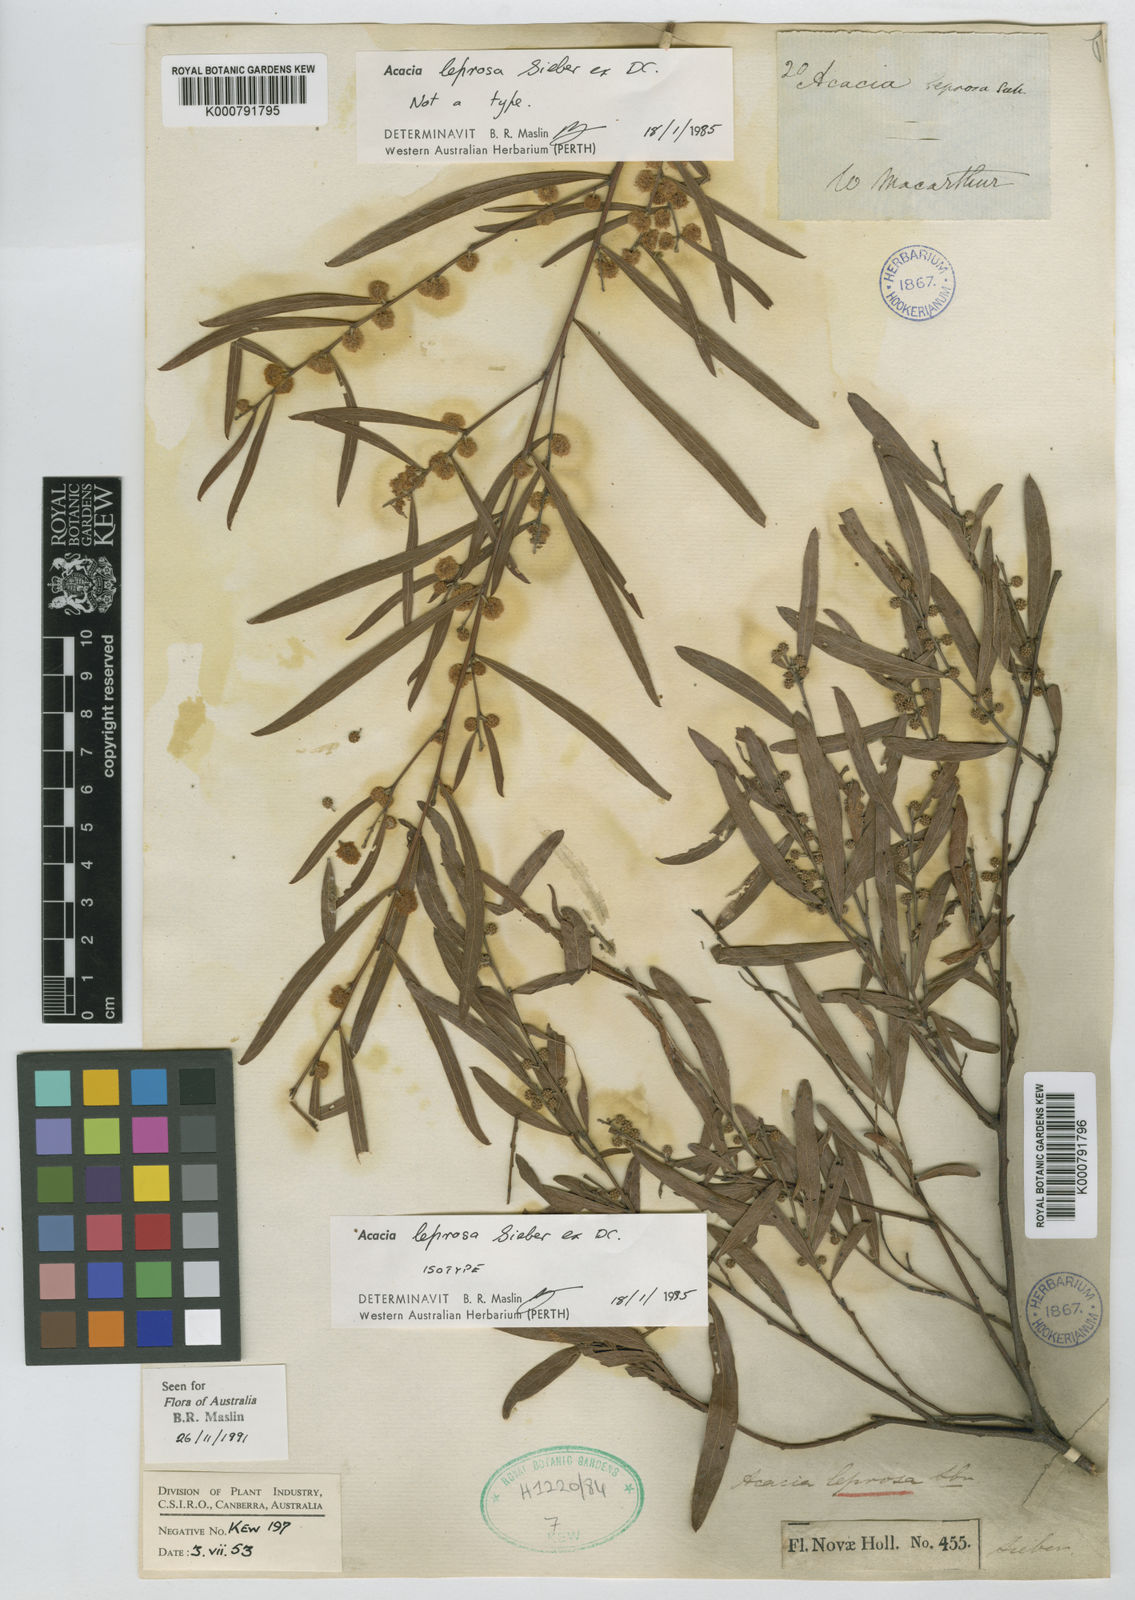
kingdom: Plantae
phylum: Tracheophyta
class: Magnoliopsida
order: Fabales
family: Fabaceae
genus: Acacia
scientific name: Acacia leprosa
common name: Cinnamon wattle
